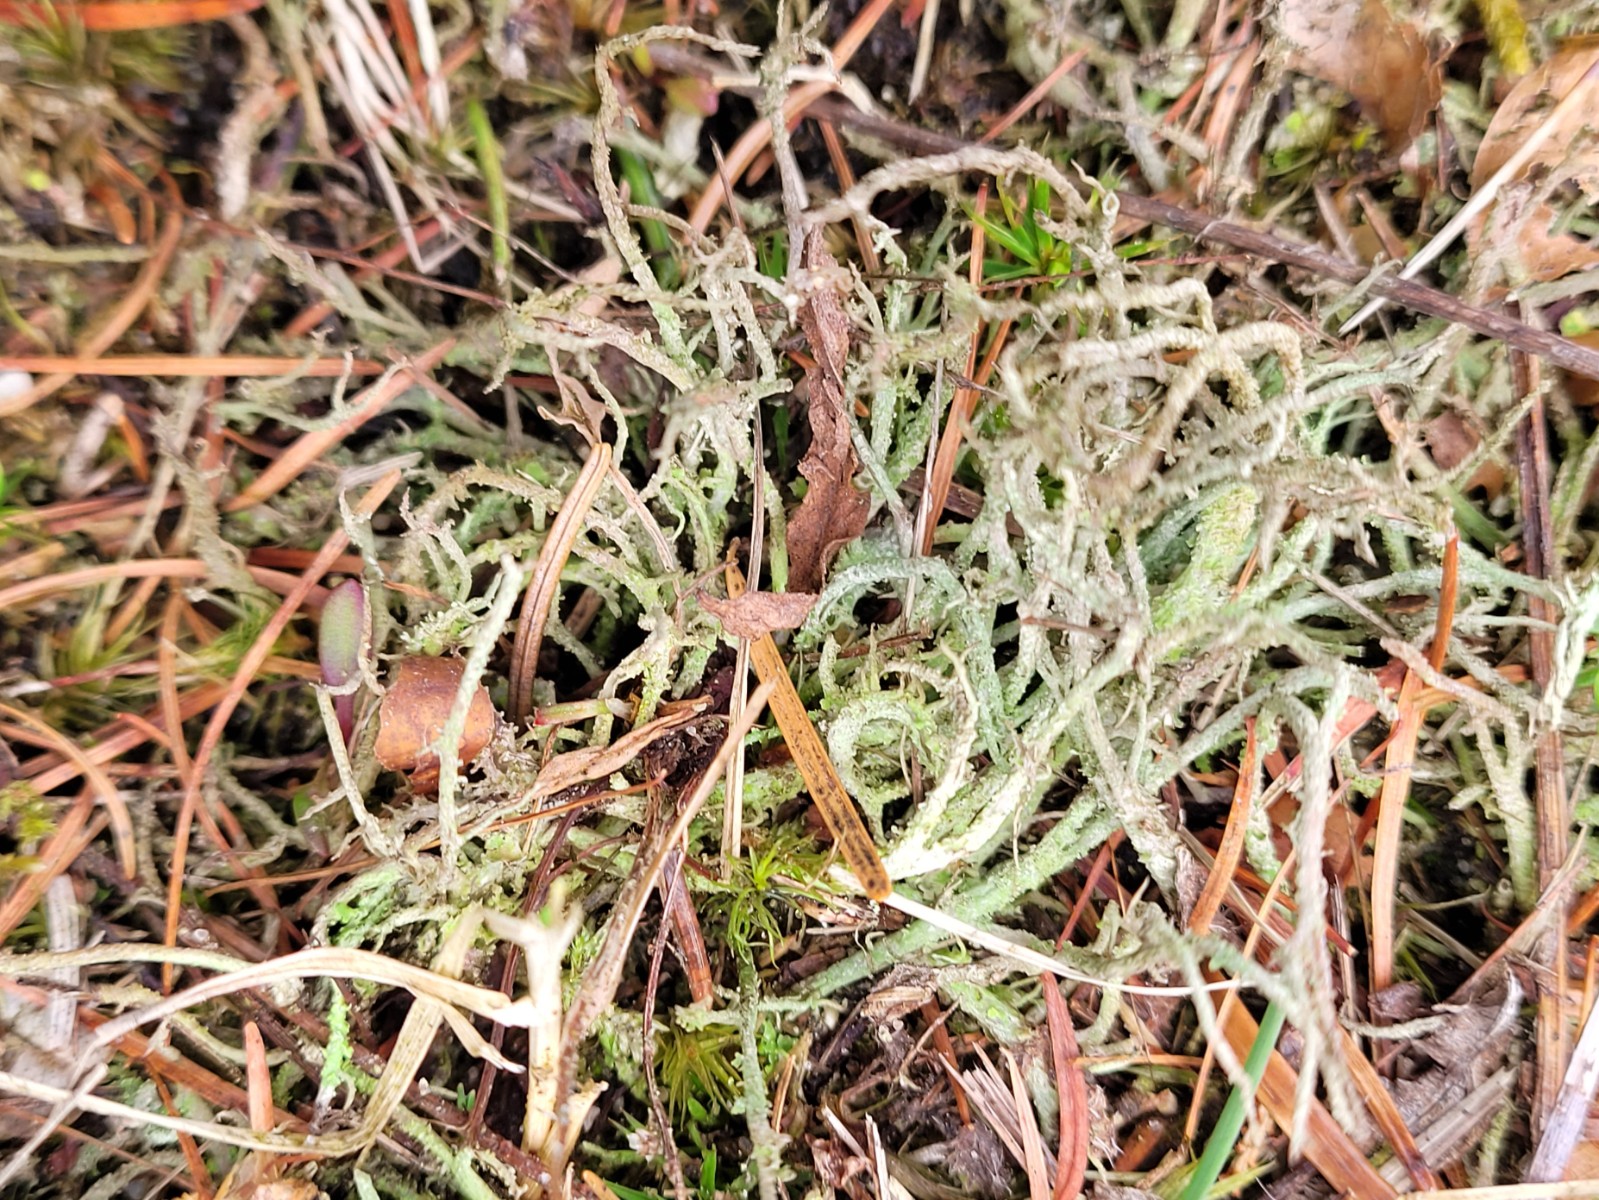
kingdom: Fungi
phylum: Ascomycota
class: Lecanoromycetes
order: Lecanorales
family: Cladoniaceae
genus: Cladonia
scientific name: Cladonia scabriuscula
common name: ru bægerlav
